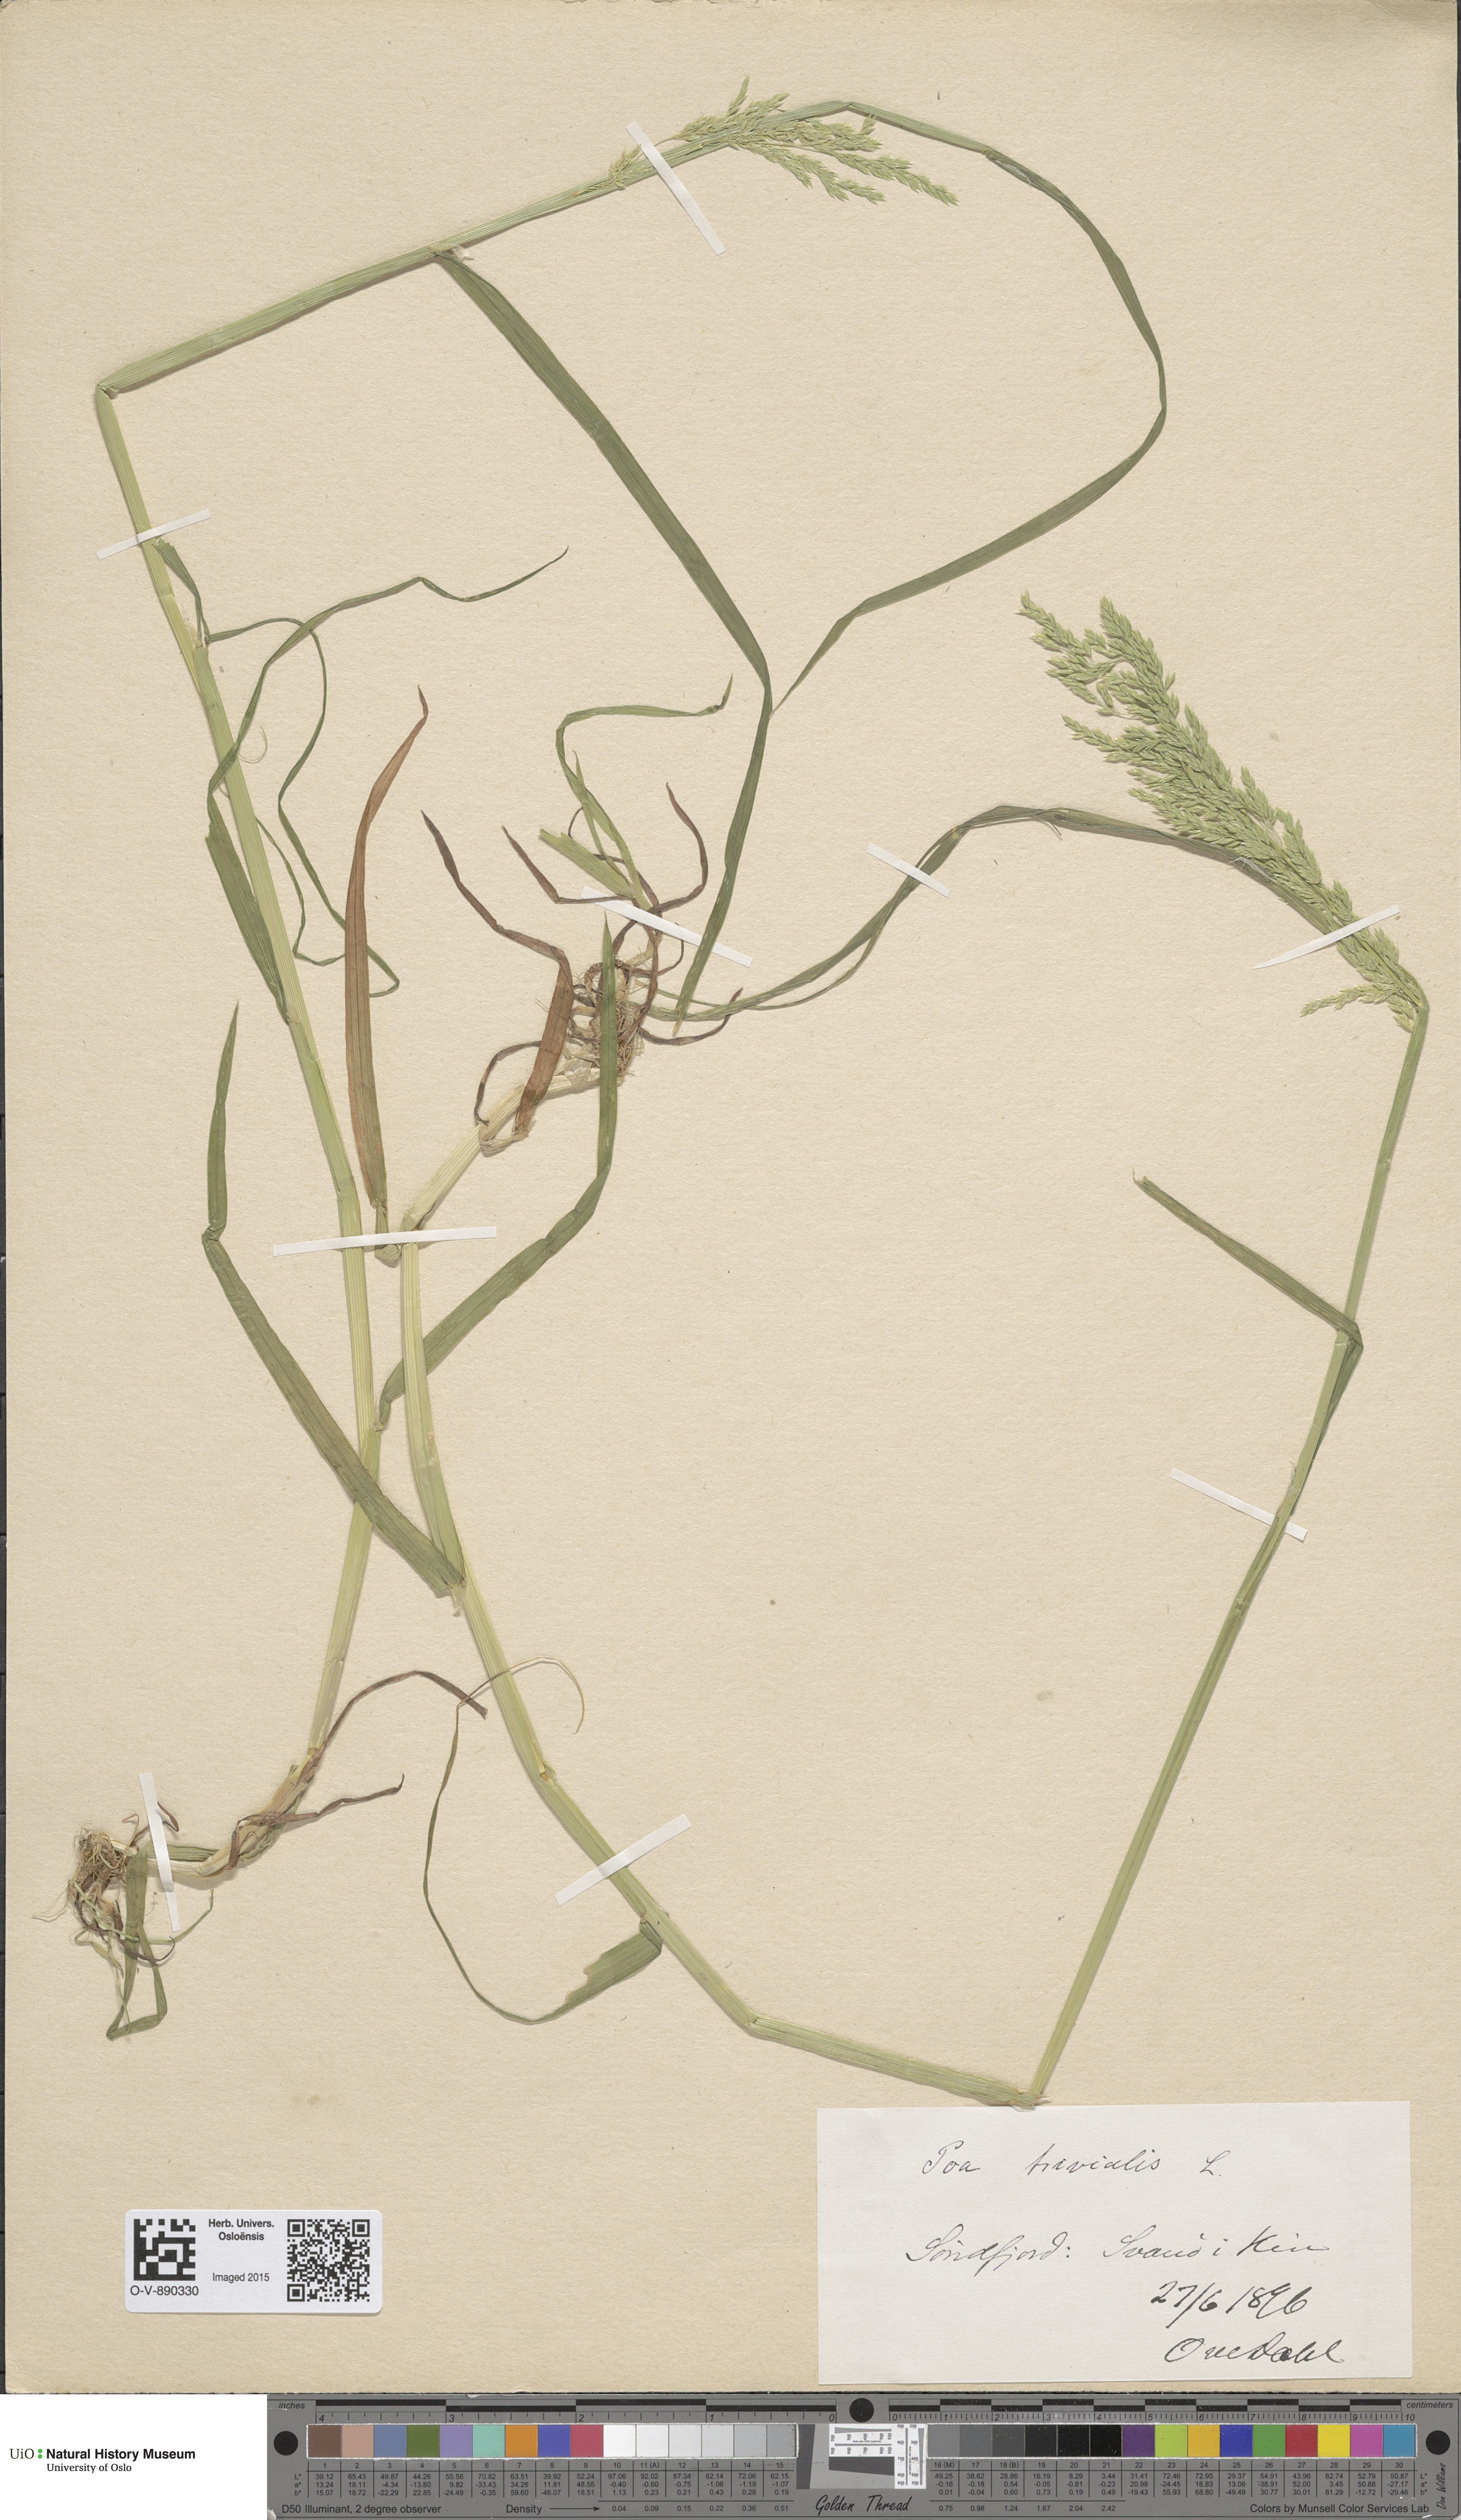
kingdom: Plantae
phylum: Tracheophyta
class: Liliopsida
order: Poales
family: Poaceae
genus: Poa
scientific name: Poa trivialis
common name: Rough bluegrass
